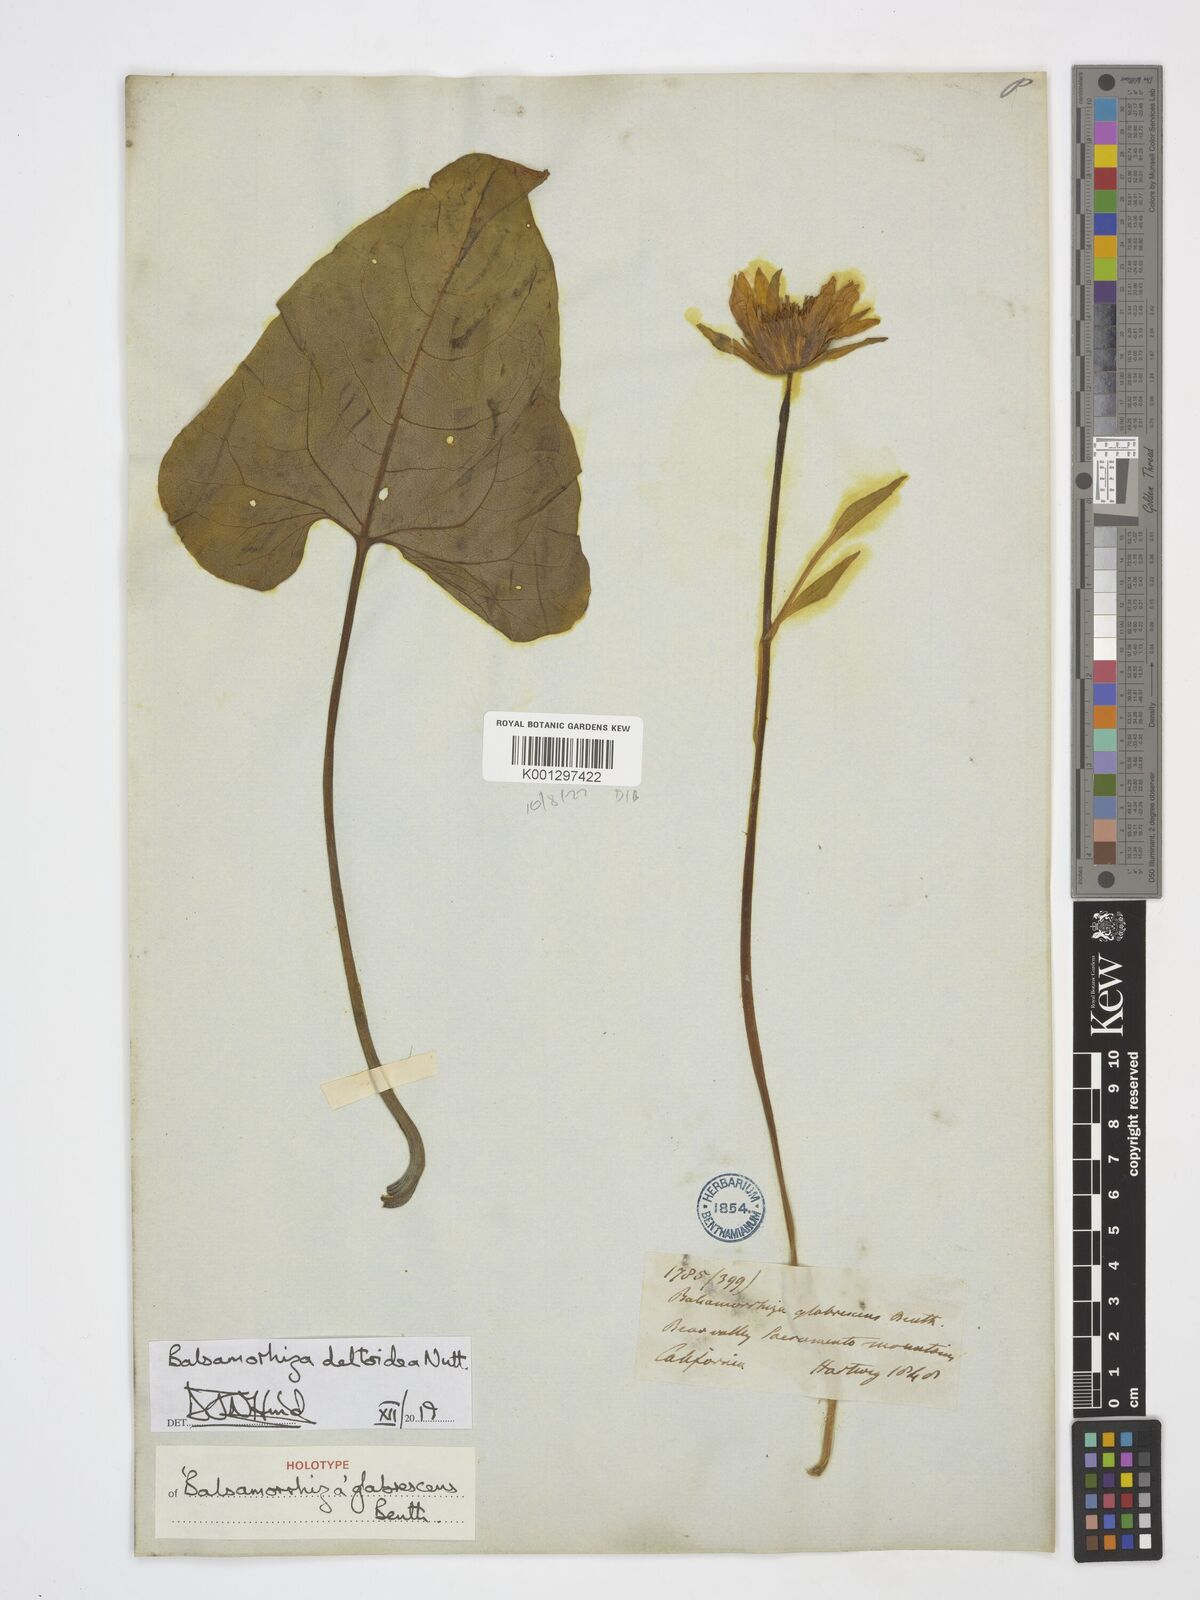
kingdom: Plantae
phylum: Tracheophyta
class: Magnoliopsida
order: Asterales
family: Asteraceae
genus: Balsamorhiza
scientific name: Balsamorhiza deltoidea
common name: Deltoid balsamroot
